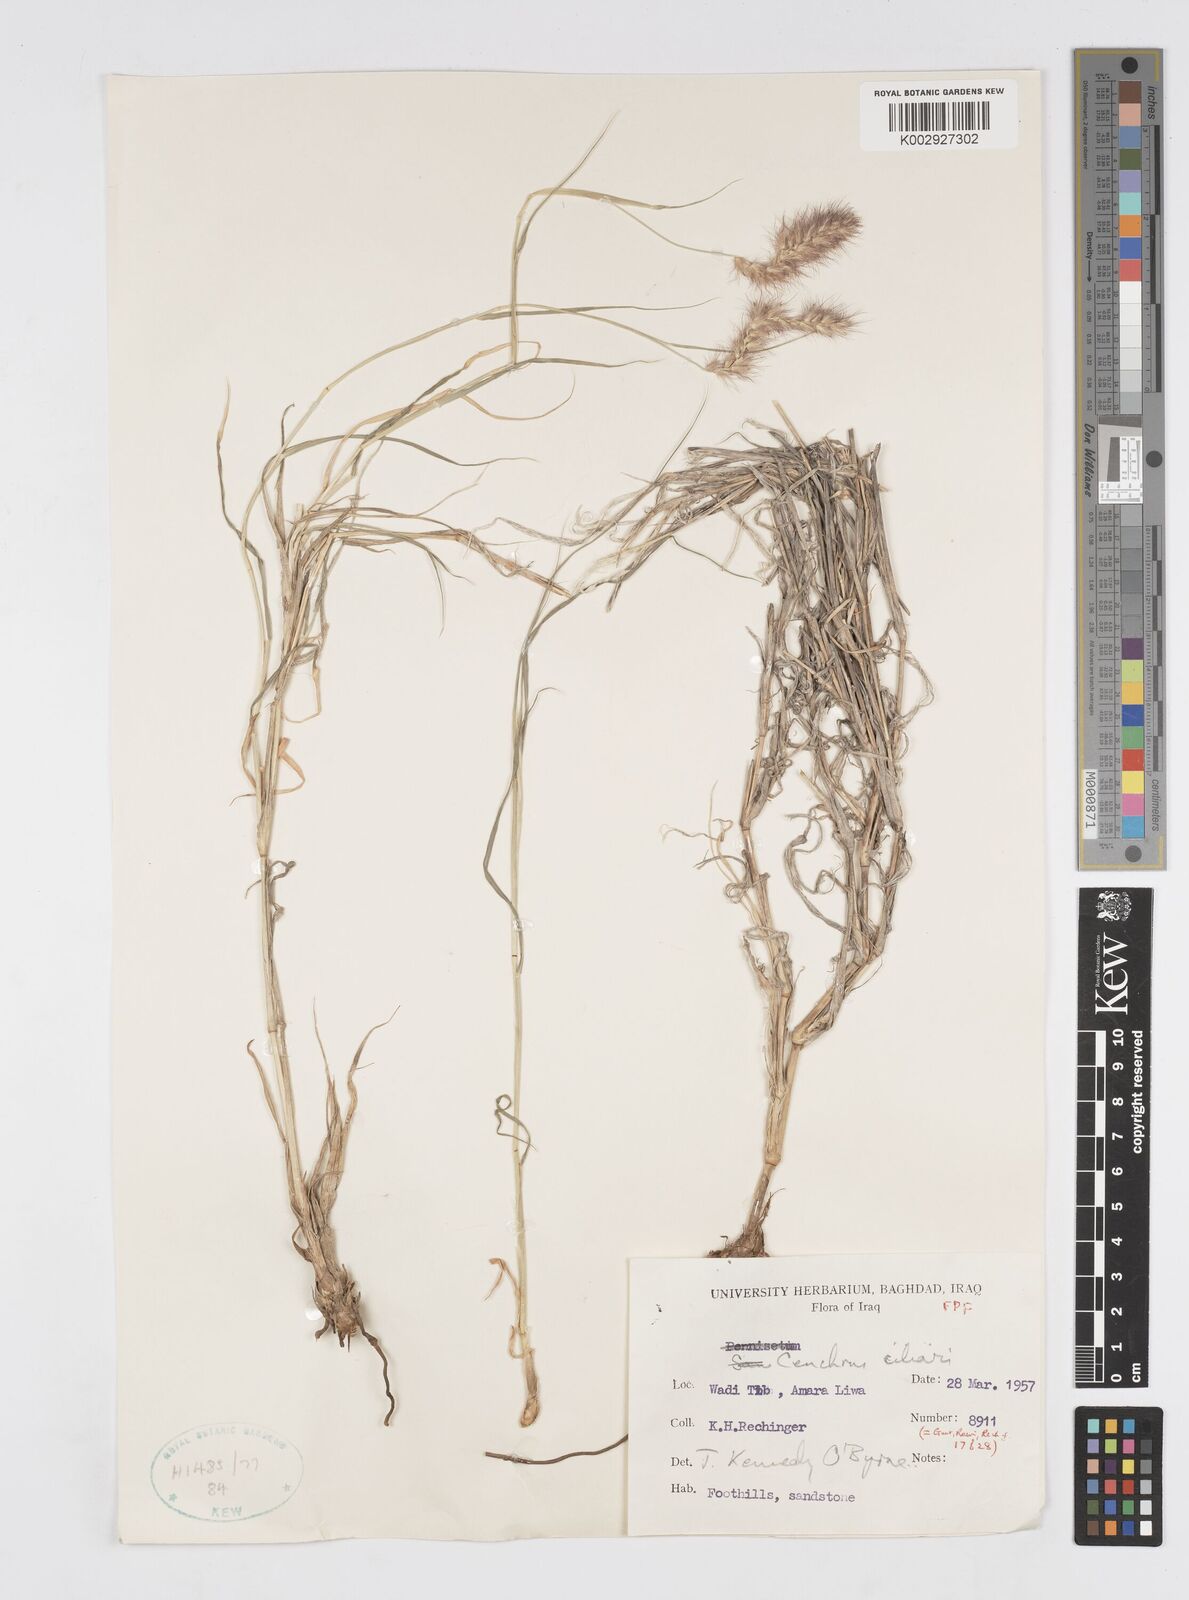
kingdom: Plantae
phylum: Tracheophyta
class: Liliopsida
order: Poales
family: Poaceae
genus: Cenchrus
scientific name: Cenchrus ciliaris
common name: Buffelgrass
